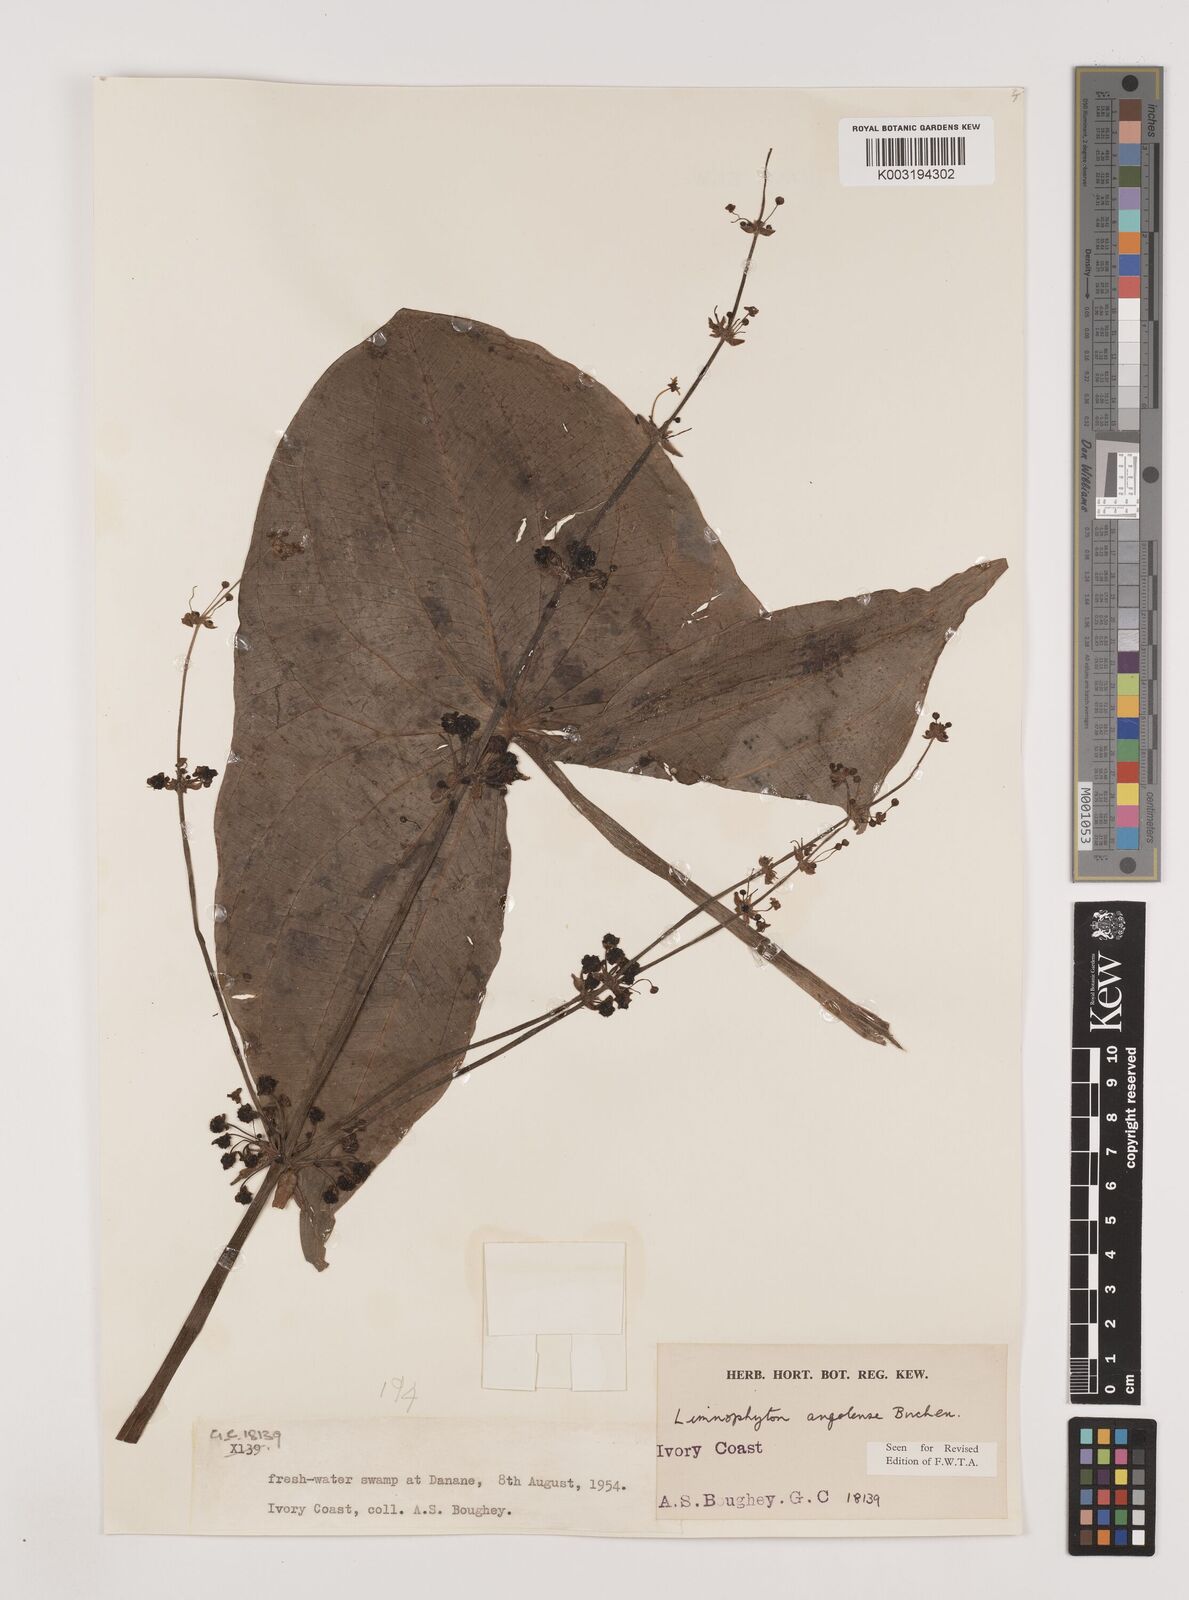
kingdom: Plantae
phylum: Tracheophyta
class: Liliopsida
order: Alismatales
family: Alismataceae
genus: Limnophyton
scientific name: Limnophyton angolense
